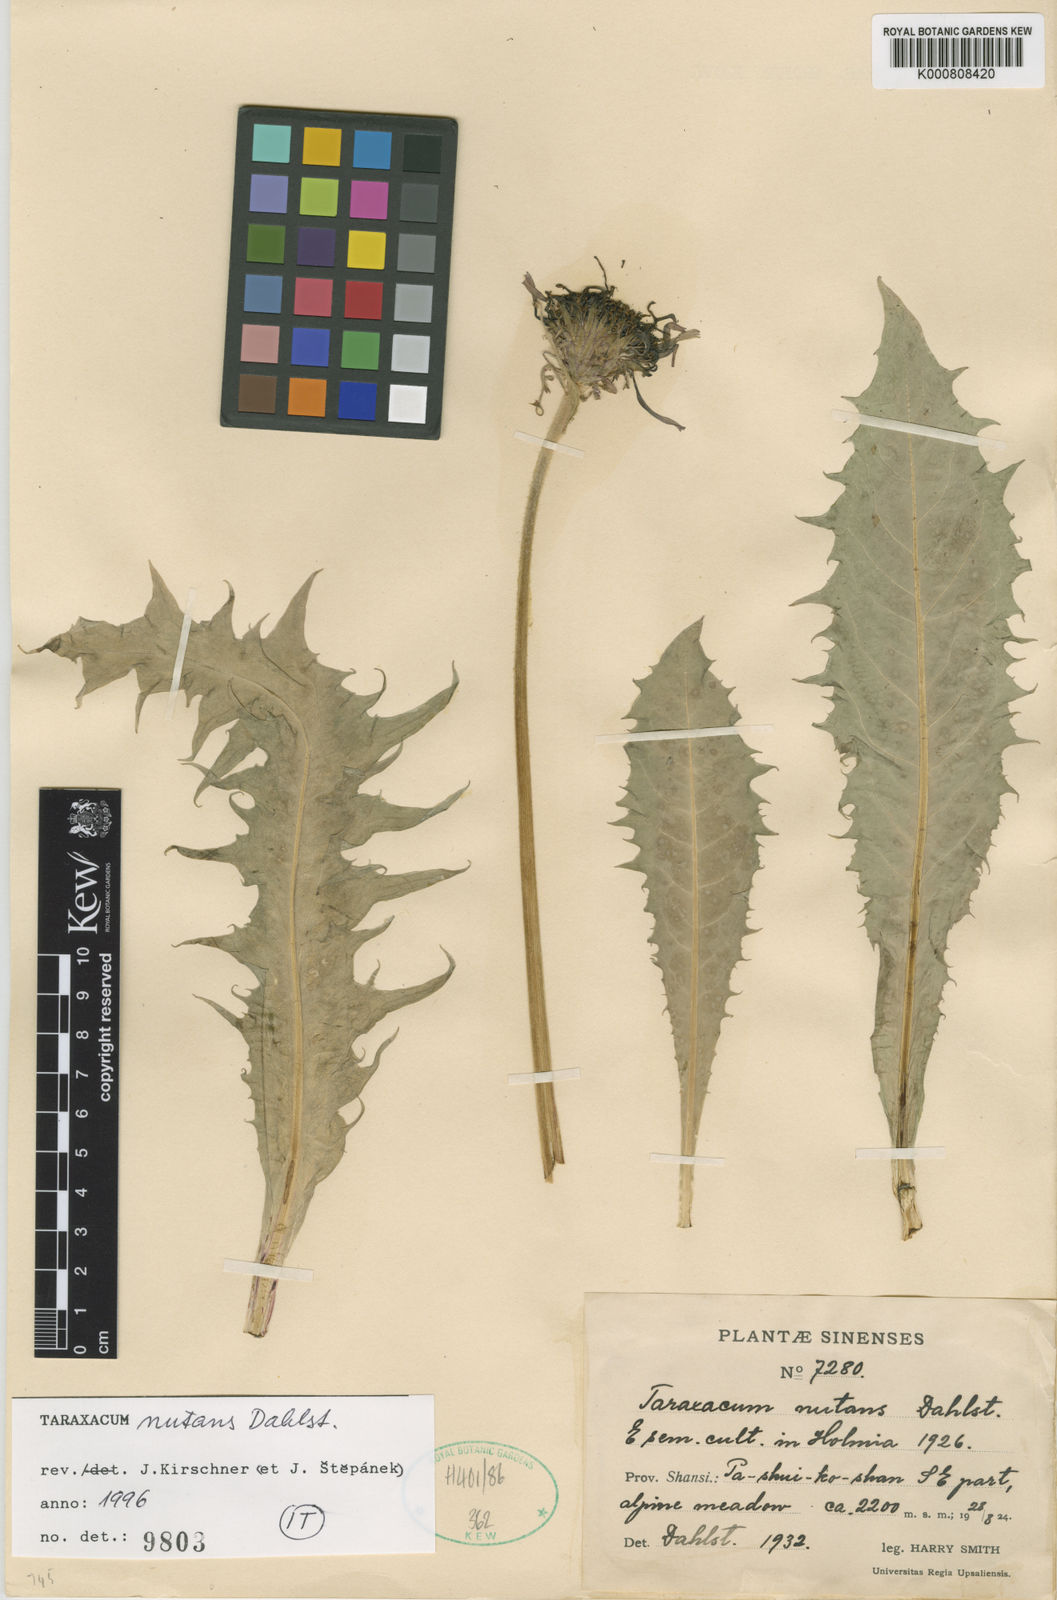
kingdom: Plantae
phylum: Tracheophyta
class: Magnoliopsida
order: Asterales
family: Asteraceae
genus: Taraxacum
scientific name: Taraxacum nutans
